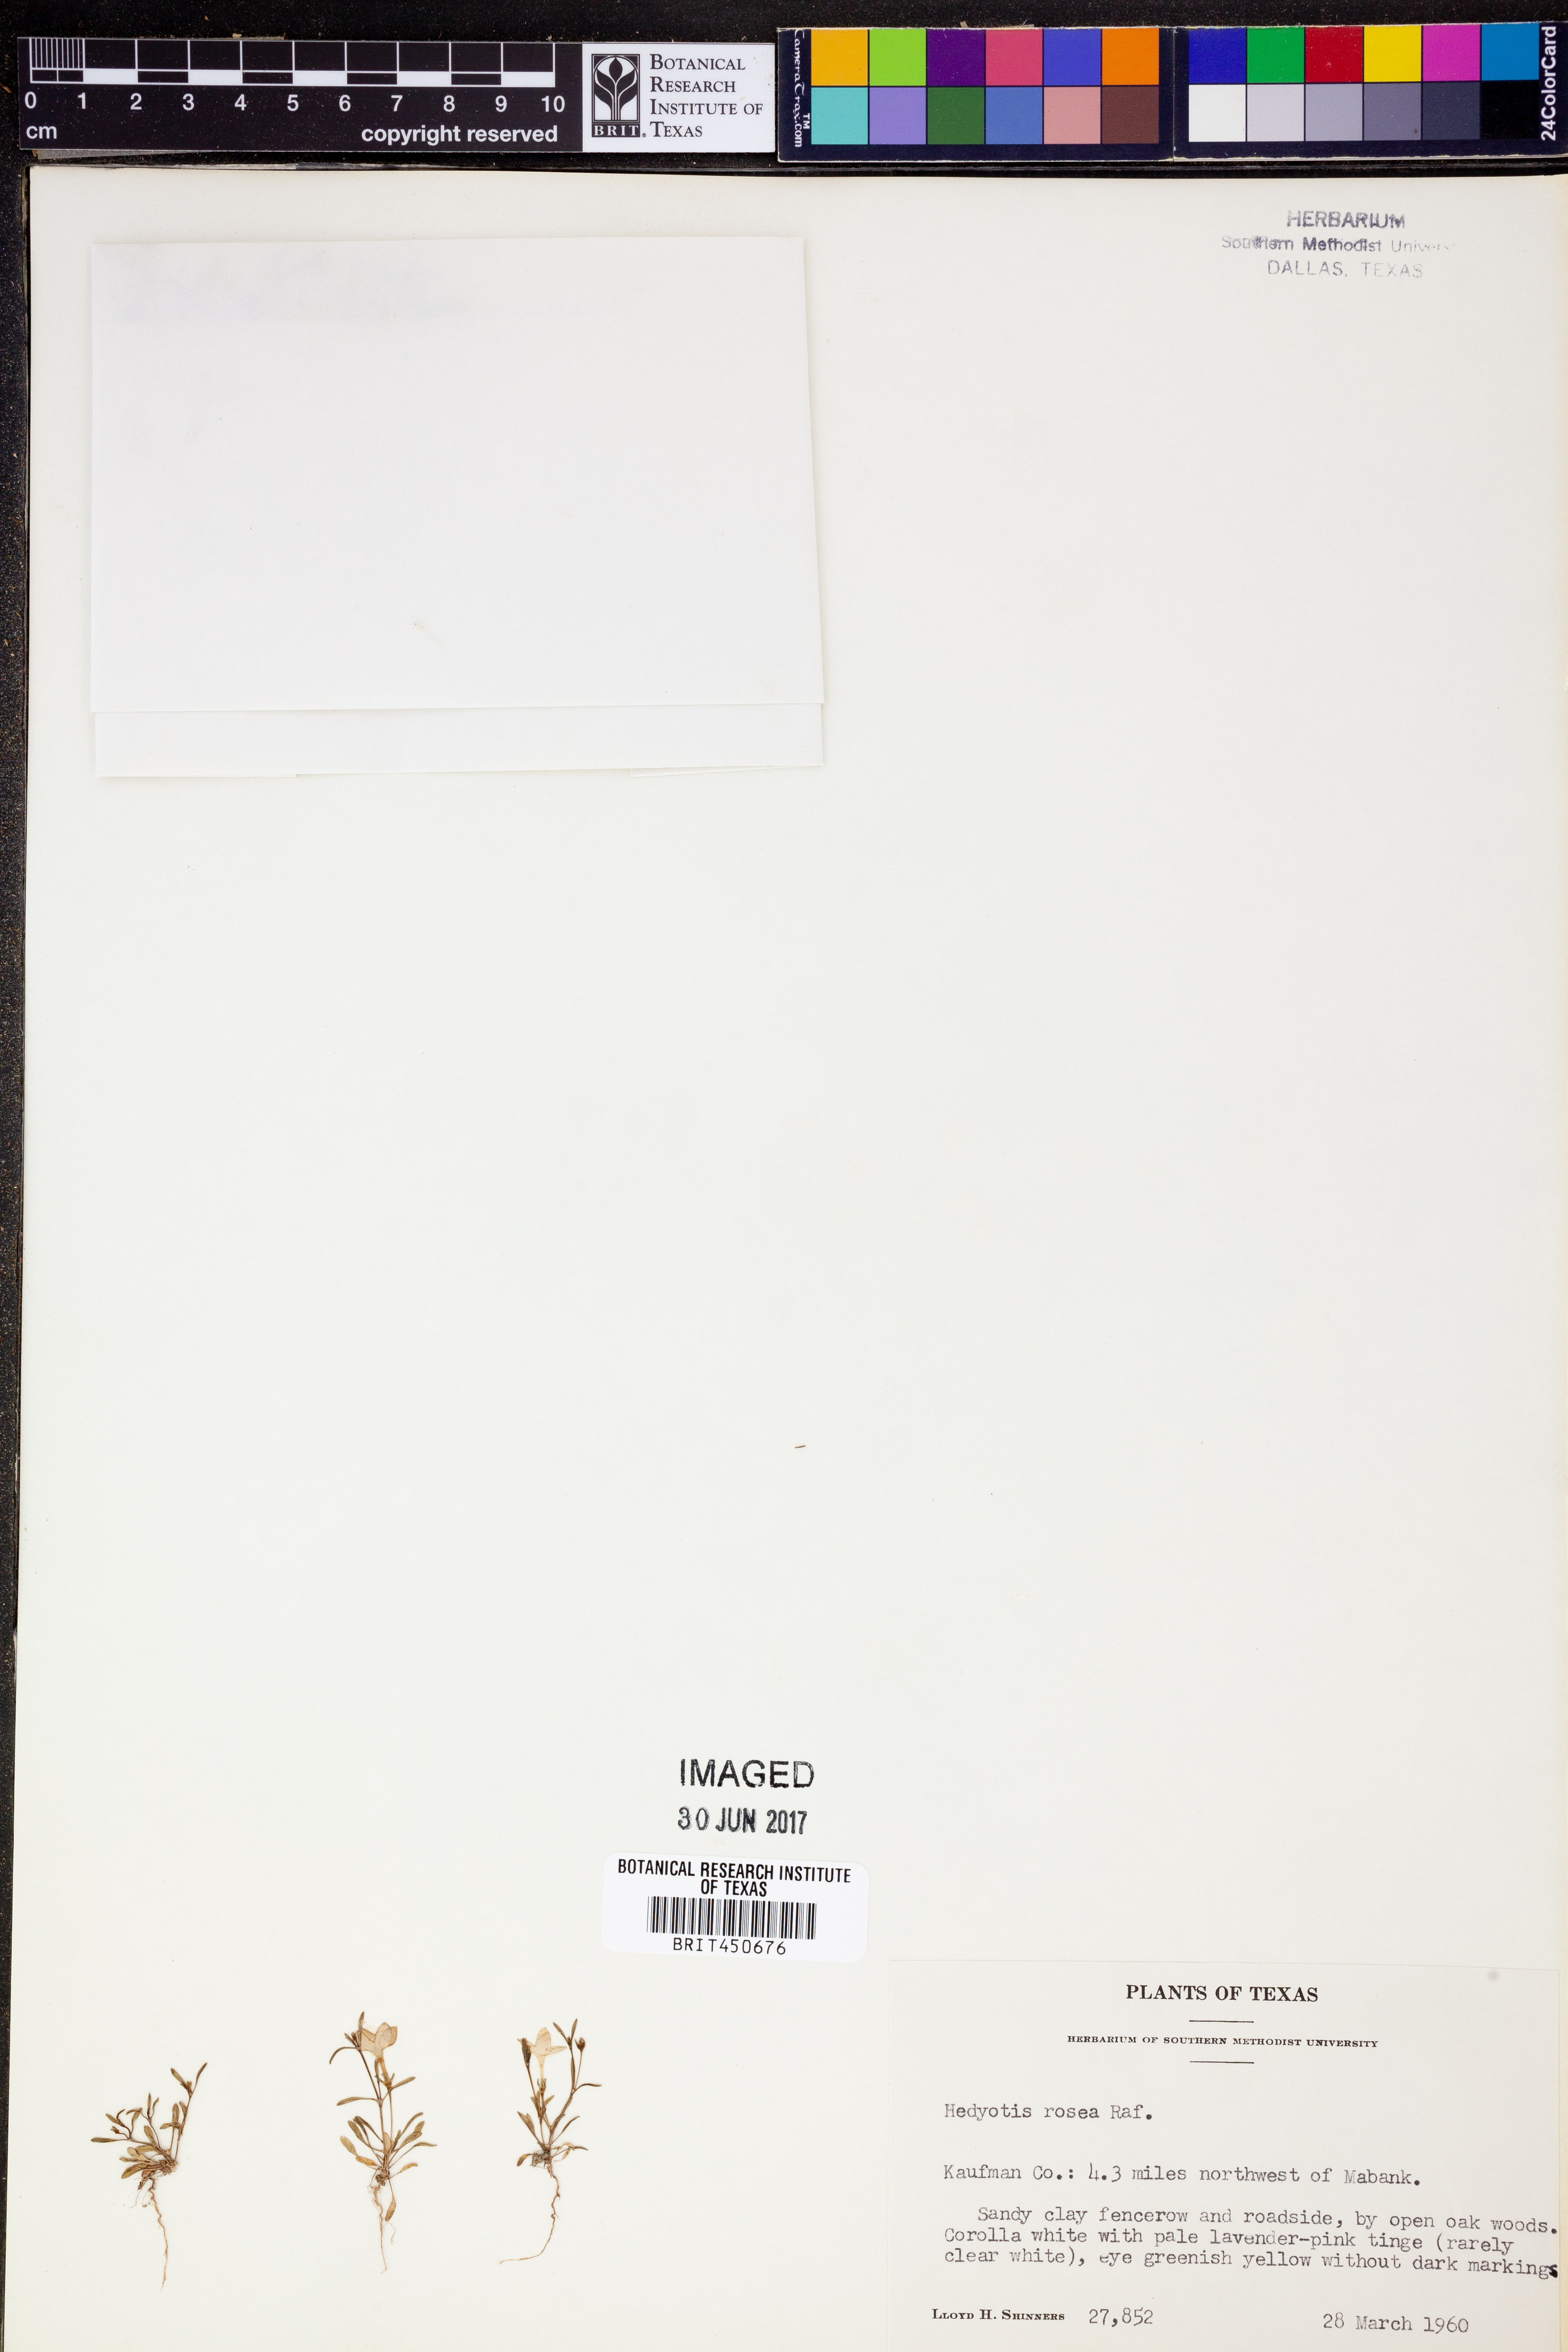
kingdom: Plantae
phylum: Tracheophyta
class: Magnoliopsida
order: Gentianales
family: Rubiaceae
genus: Houstonia
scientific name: Houstonia rosea
